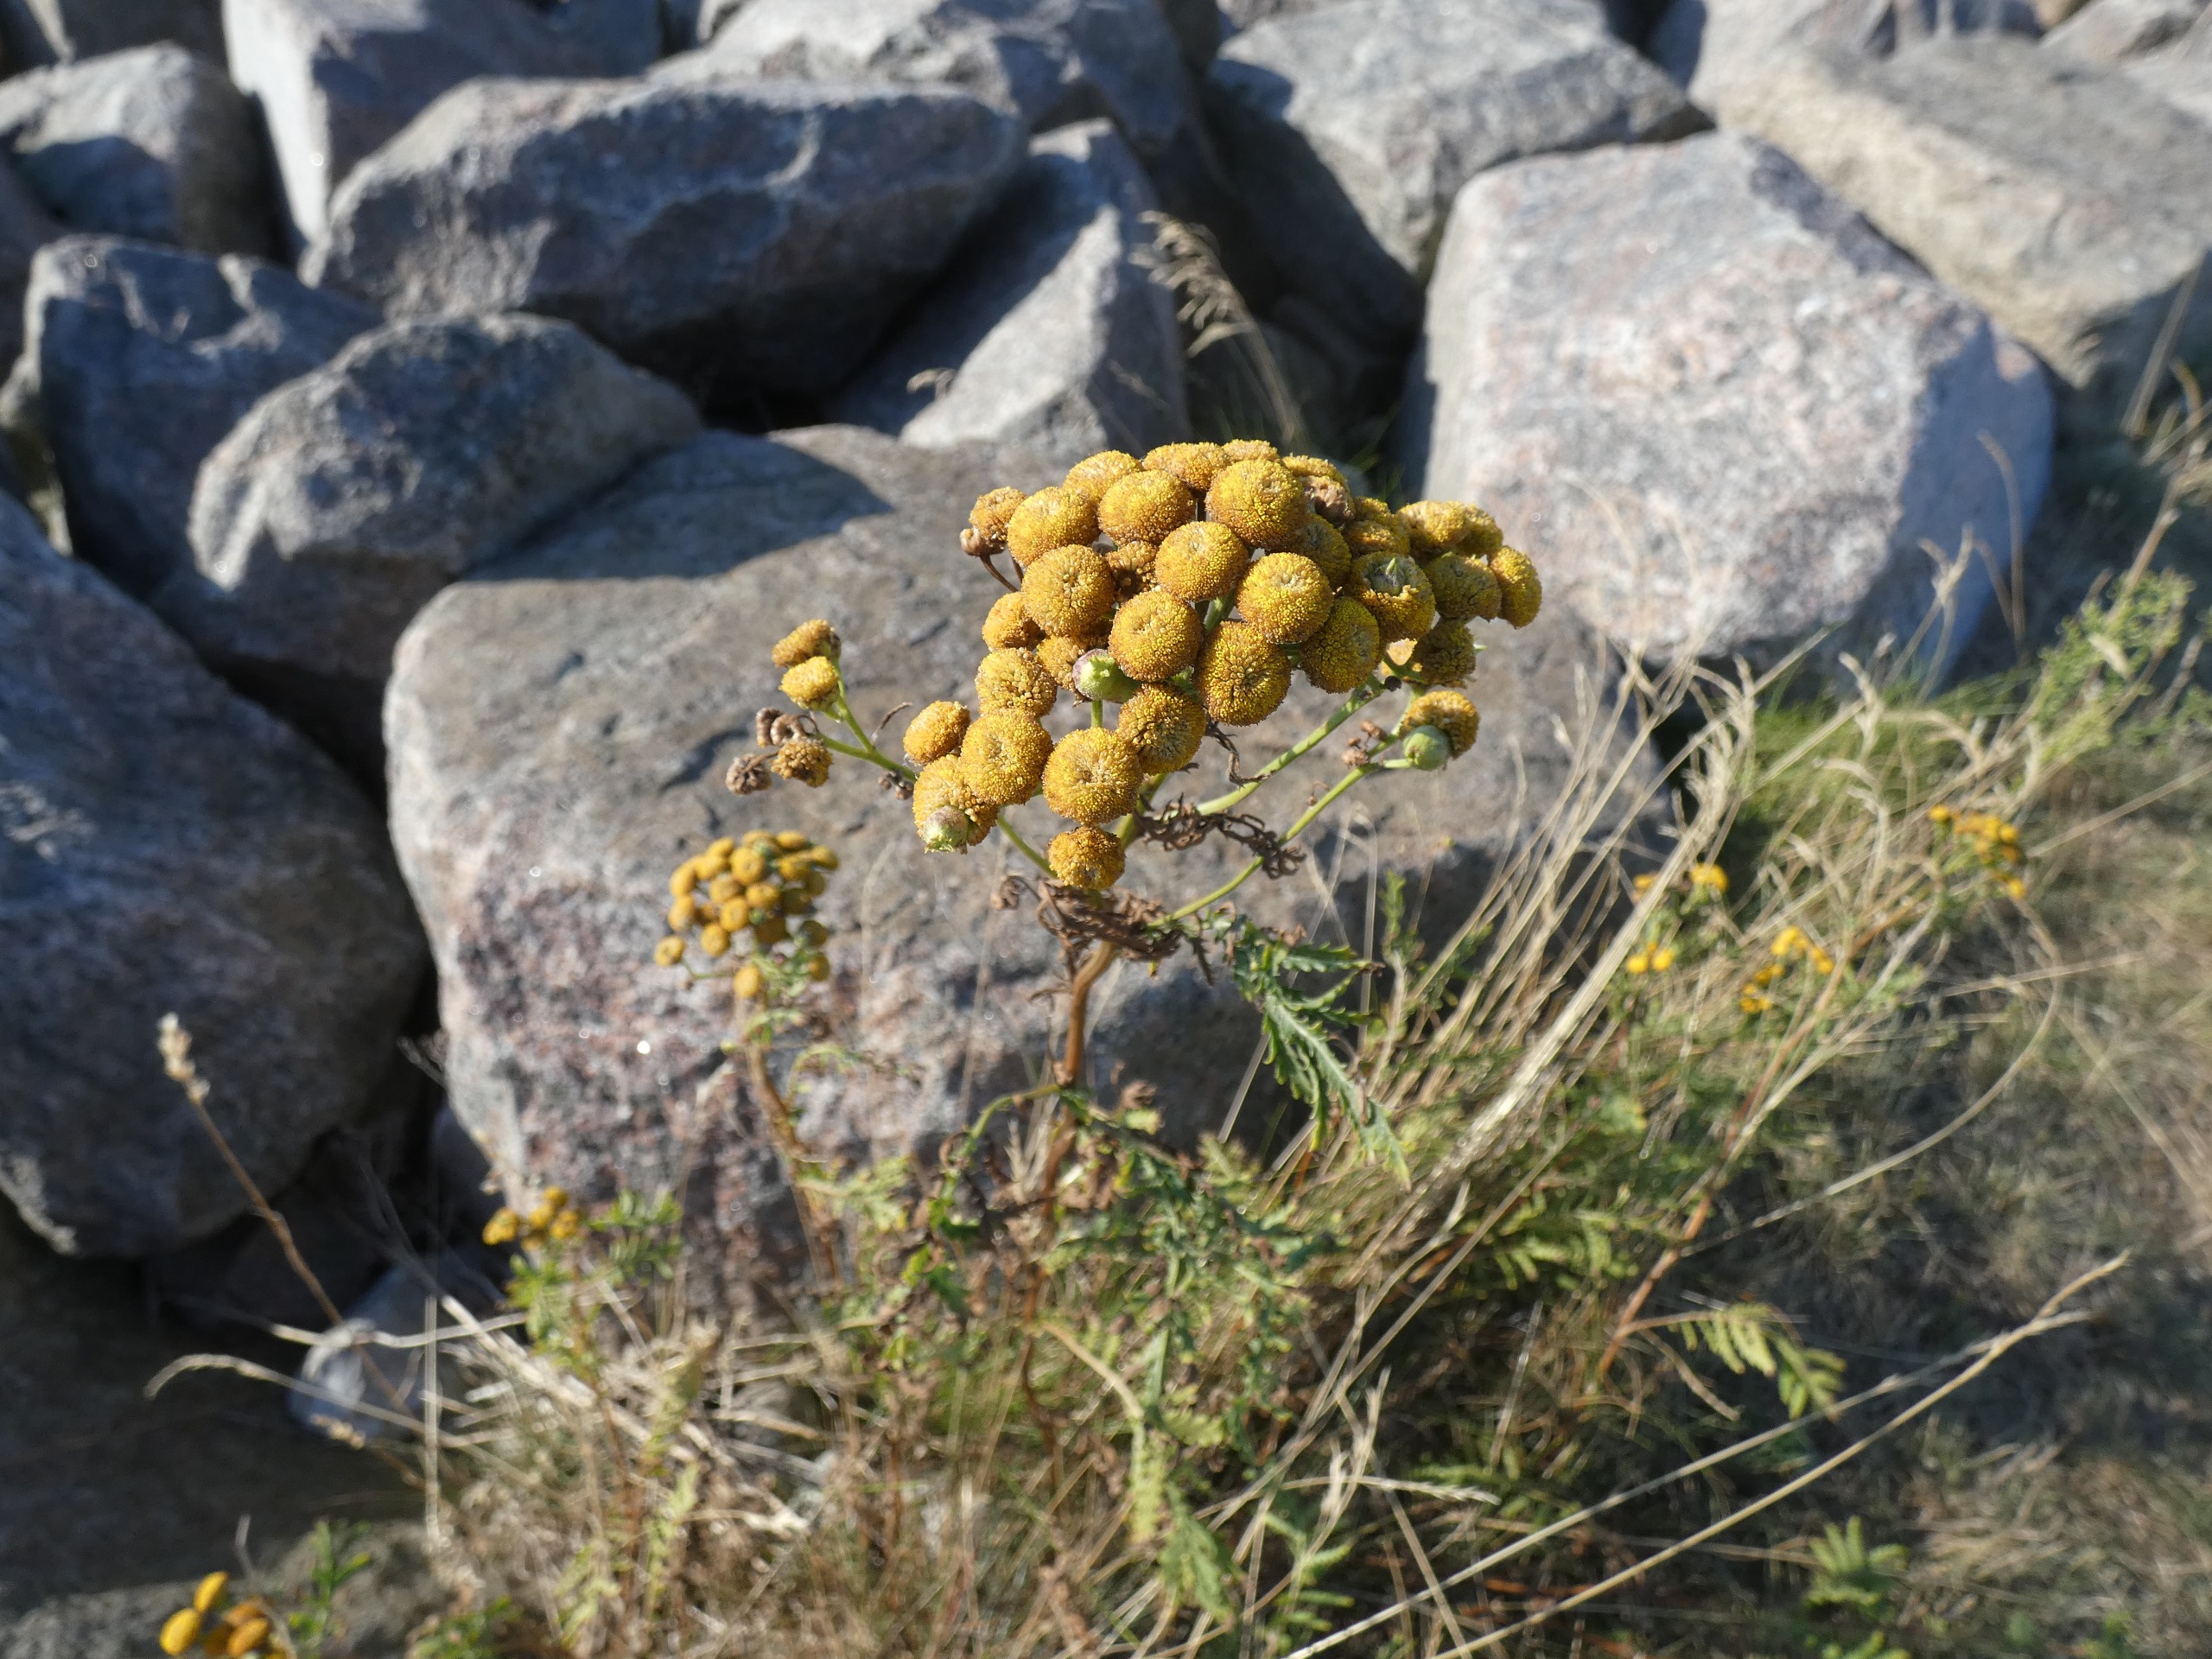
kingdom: Plantae
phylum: Tracheophyta
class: Magnoliopsida
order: Asterales
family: Asteraceae
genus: Tanacetum
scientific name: Tanacetum vulgare
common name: Rejnfan
